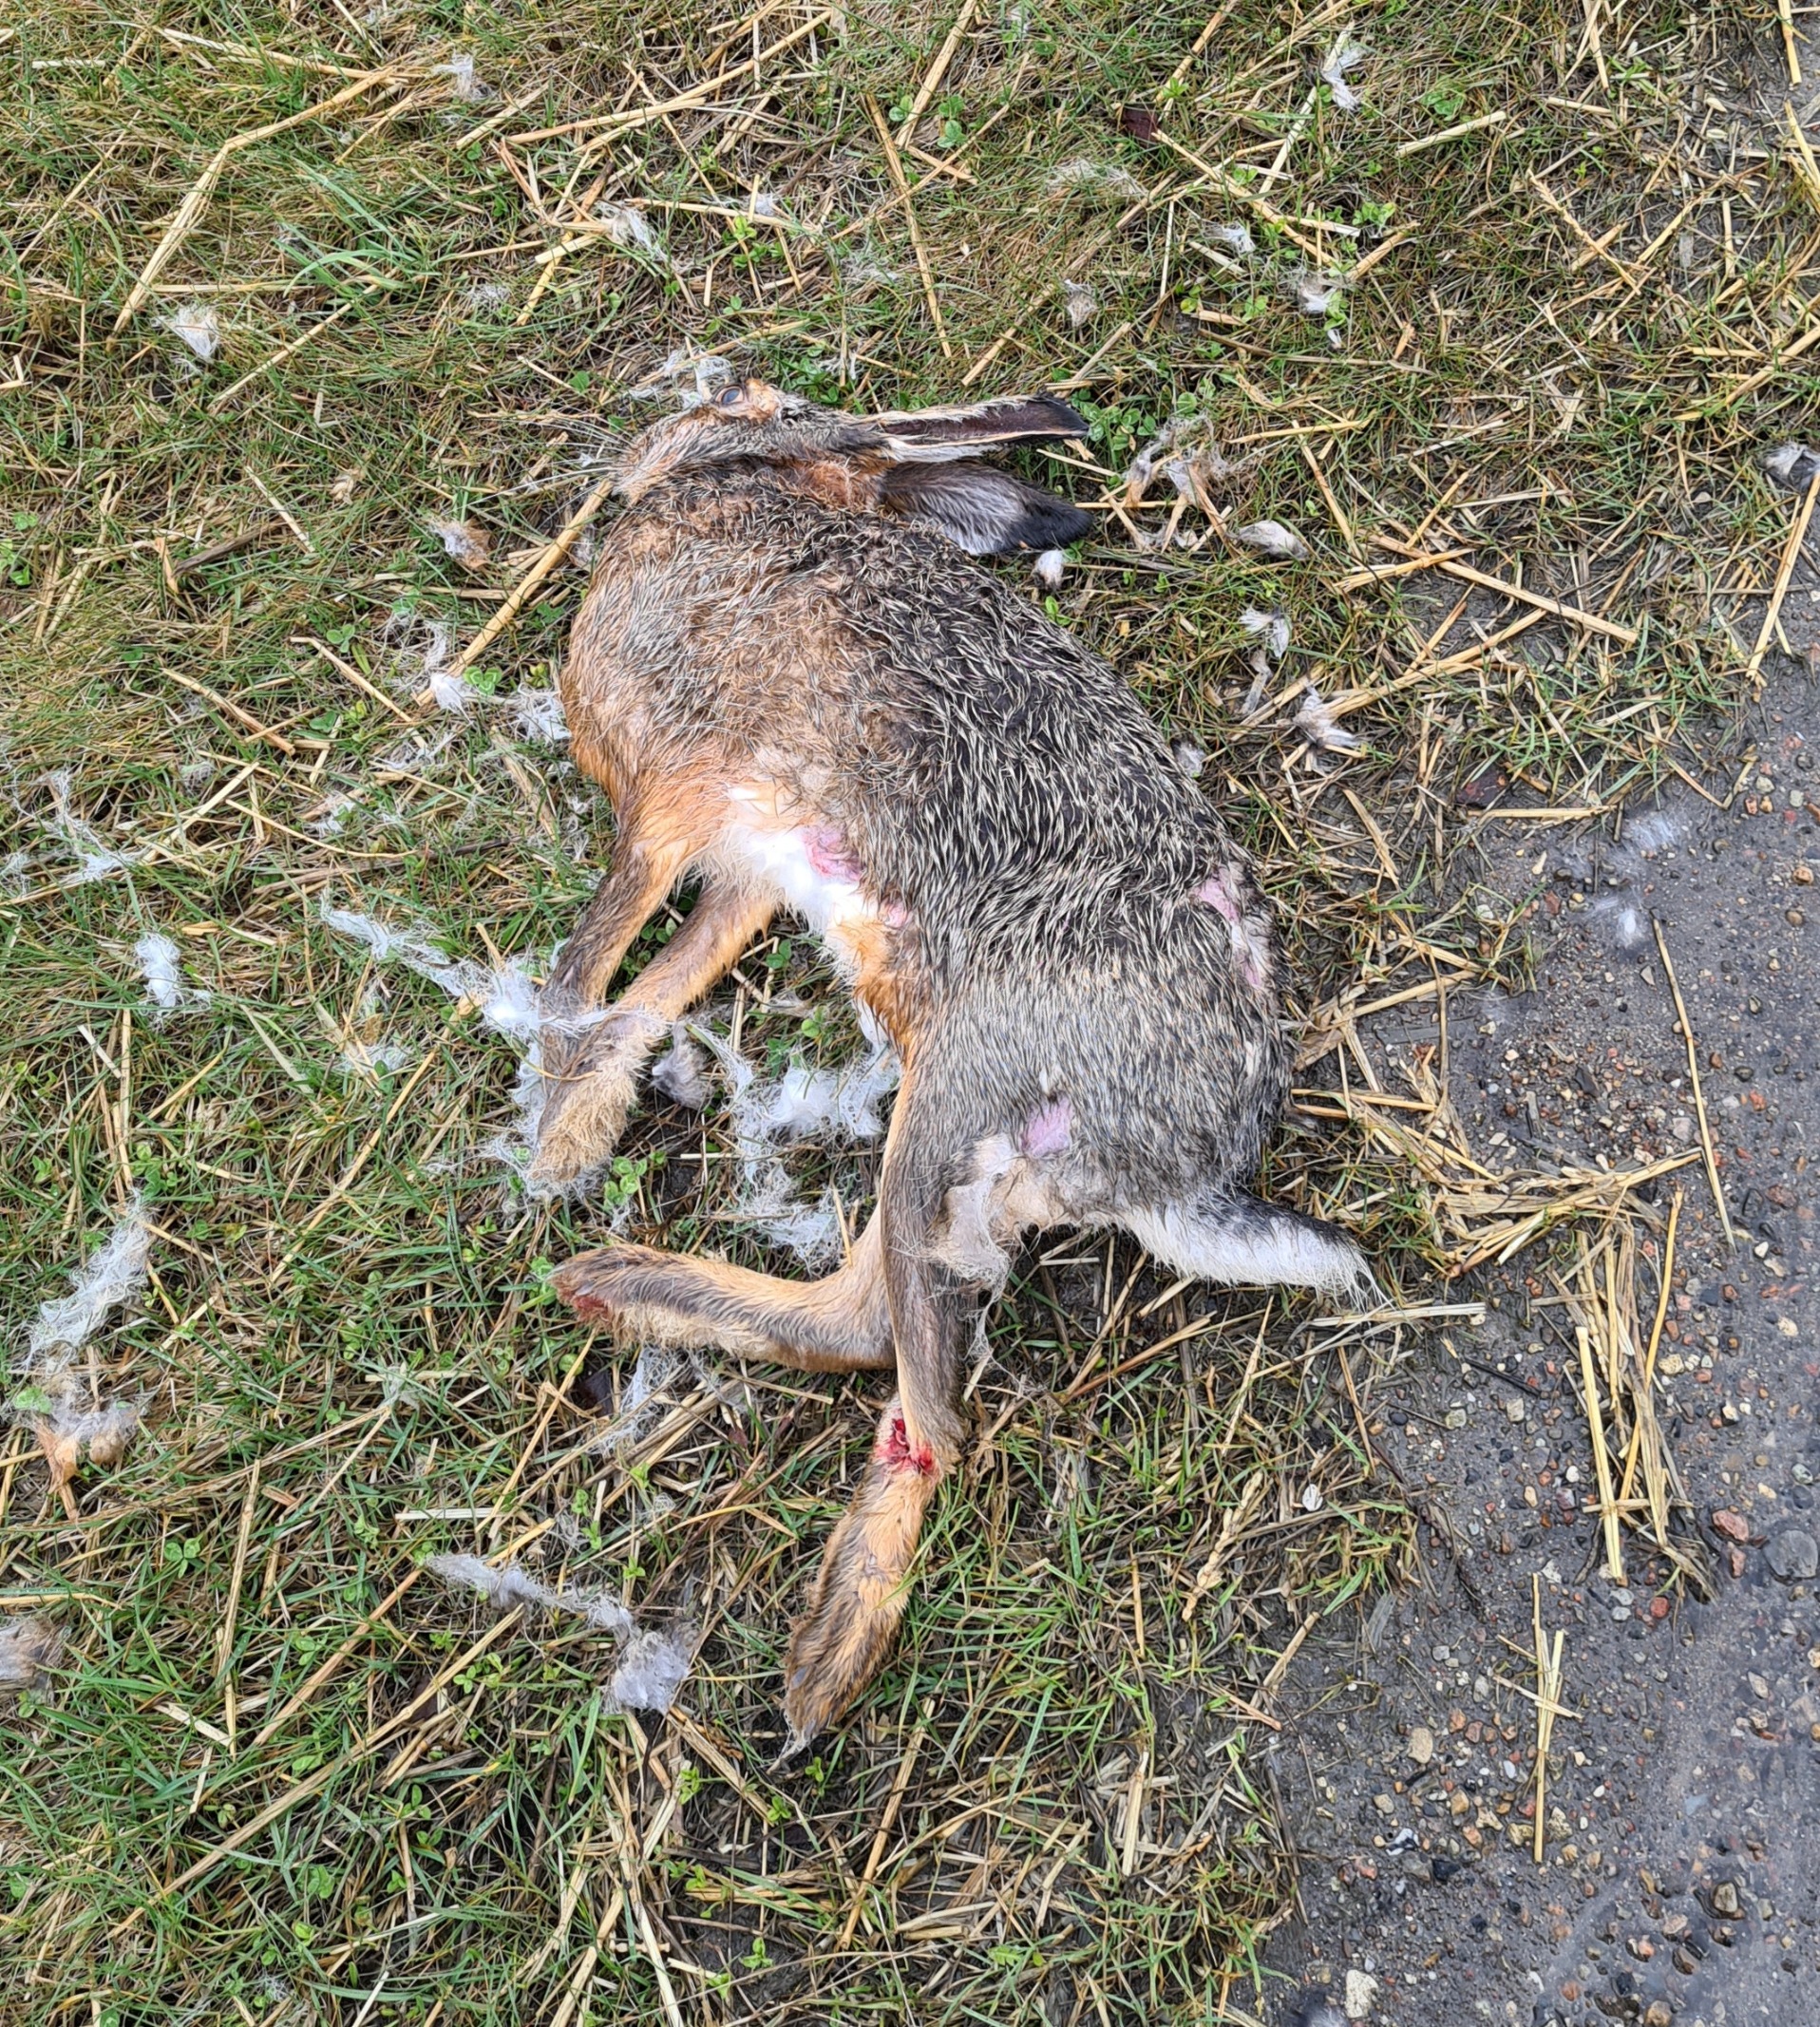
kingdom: Animalia
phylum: Chordata
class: Mammalia
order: Lagomorpha
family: Leporidae
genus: Lepus
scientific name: Lepus europaeus
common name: Hare
